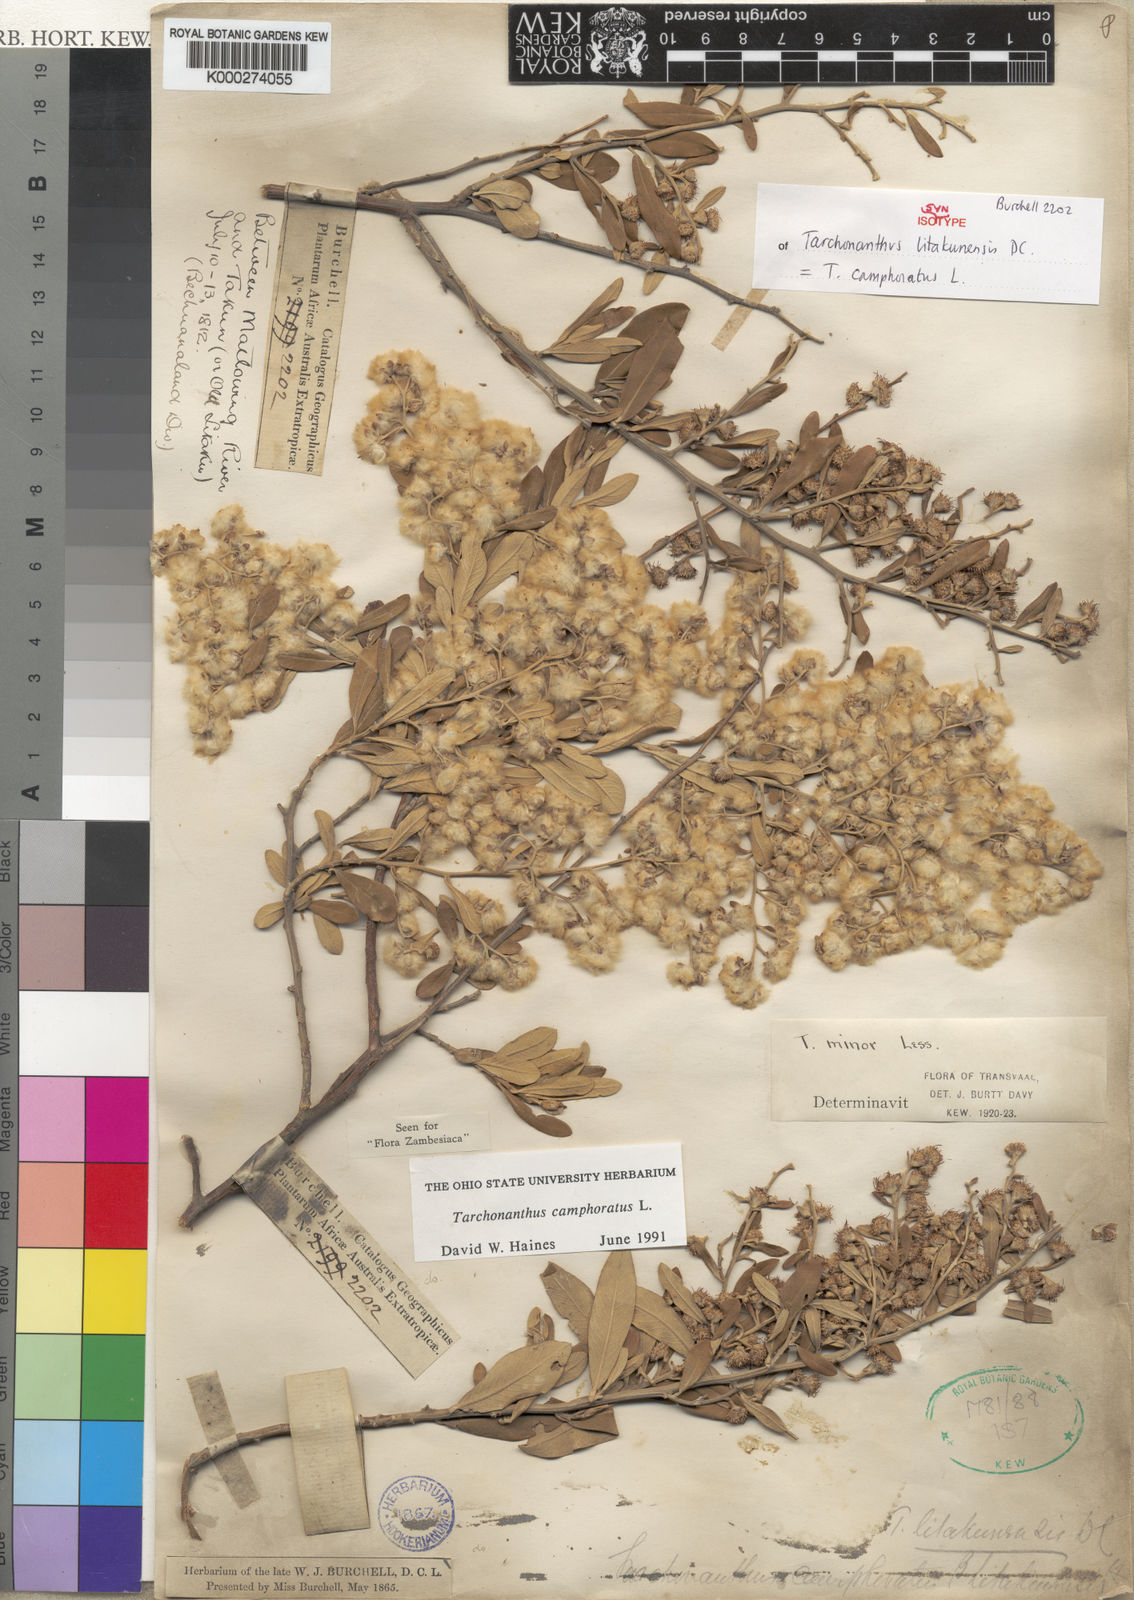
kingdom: Plantae
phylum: Tracheophyta
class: Magnoliopsida
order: Asterales
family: Asteraceae
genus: Tarchonanthus
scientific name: Tarchonanthus camphoratus
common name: Camphorwood
